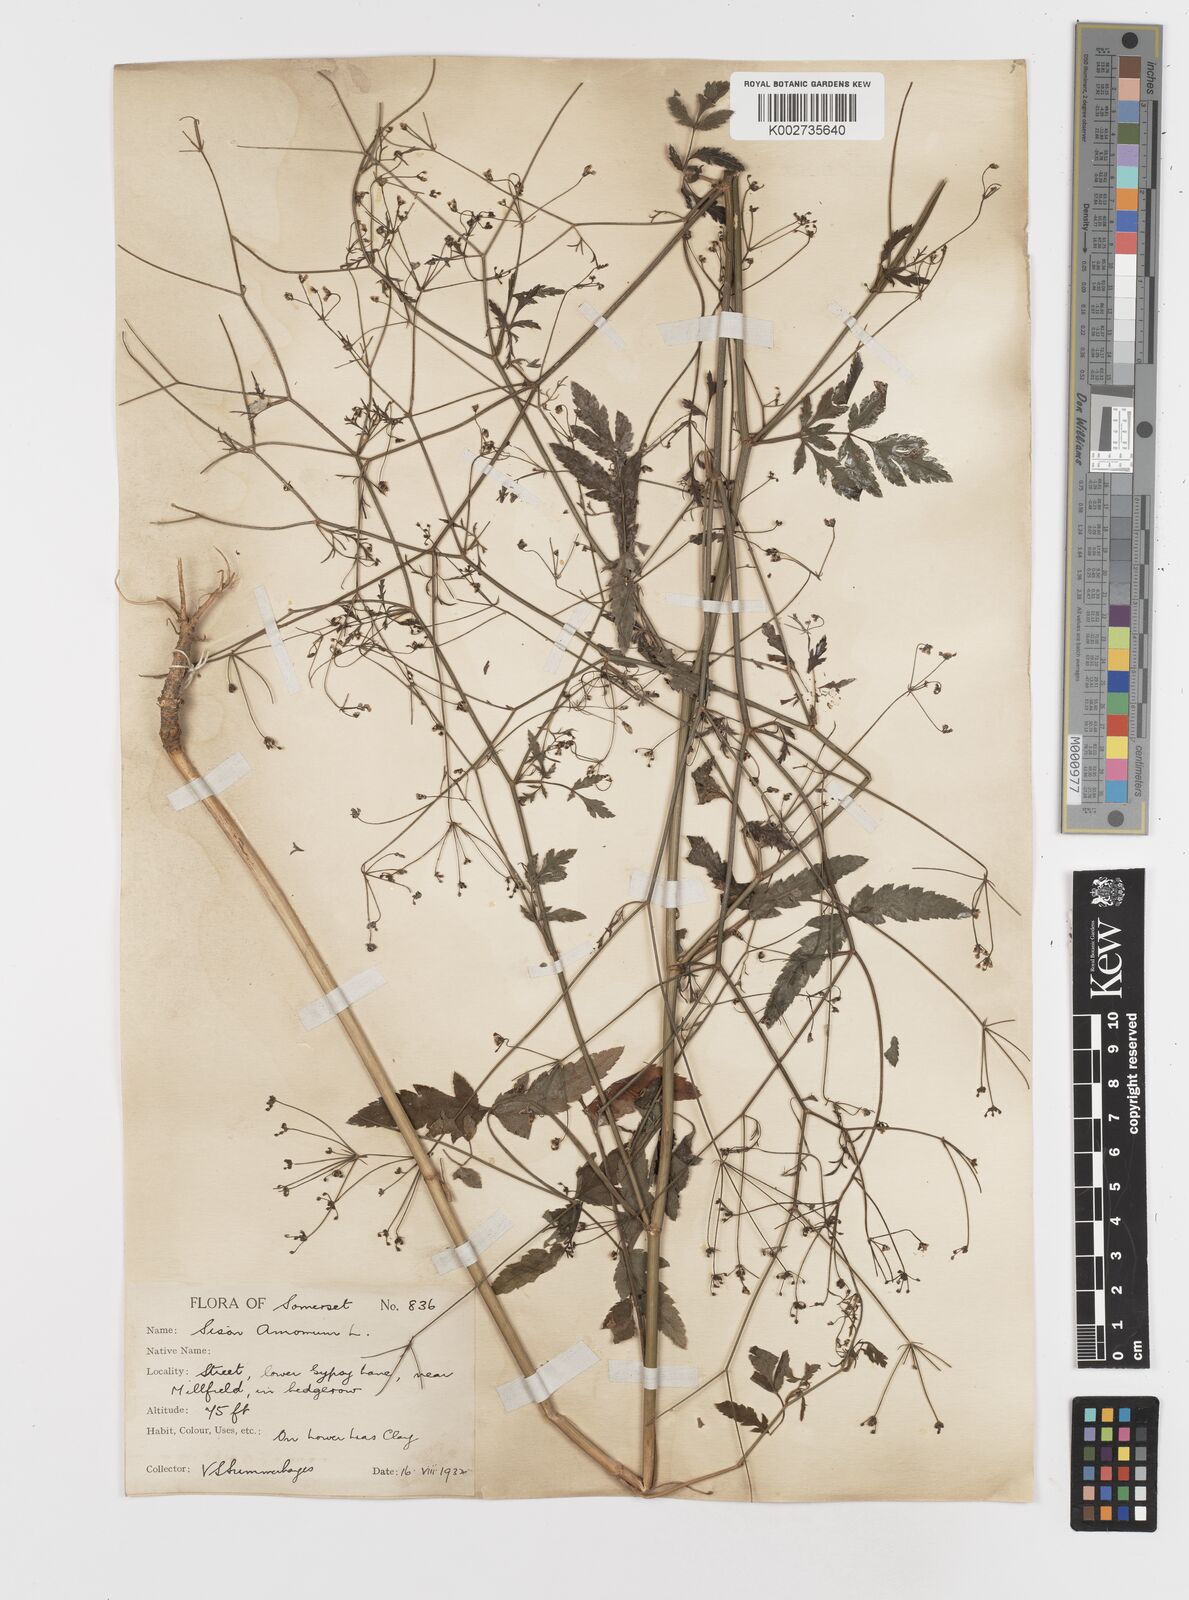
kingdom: Plantae
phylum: Tracheophyta
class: Magnoliopsida
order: Apiales
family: Apiaceae
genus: Sison
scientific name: Sison amomum
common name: Stone-parsley
